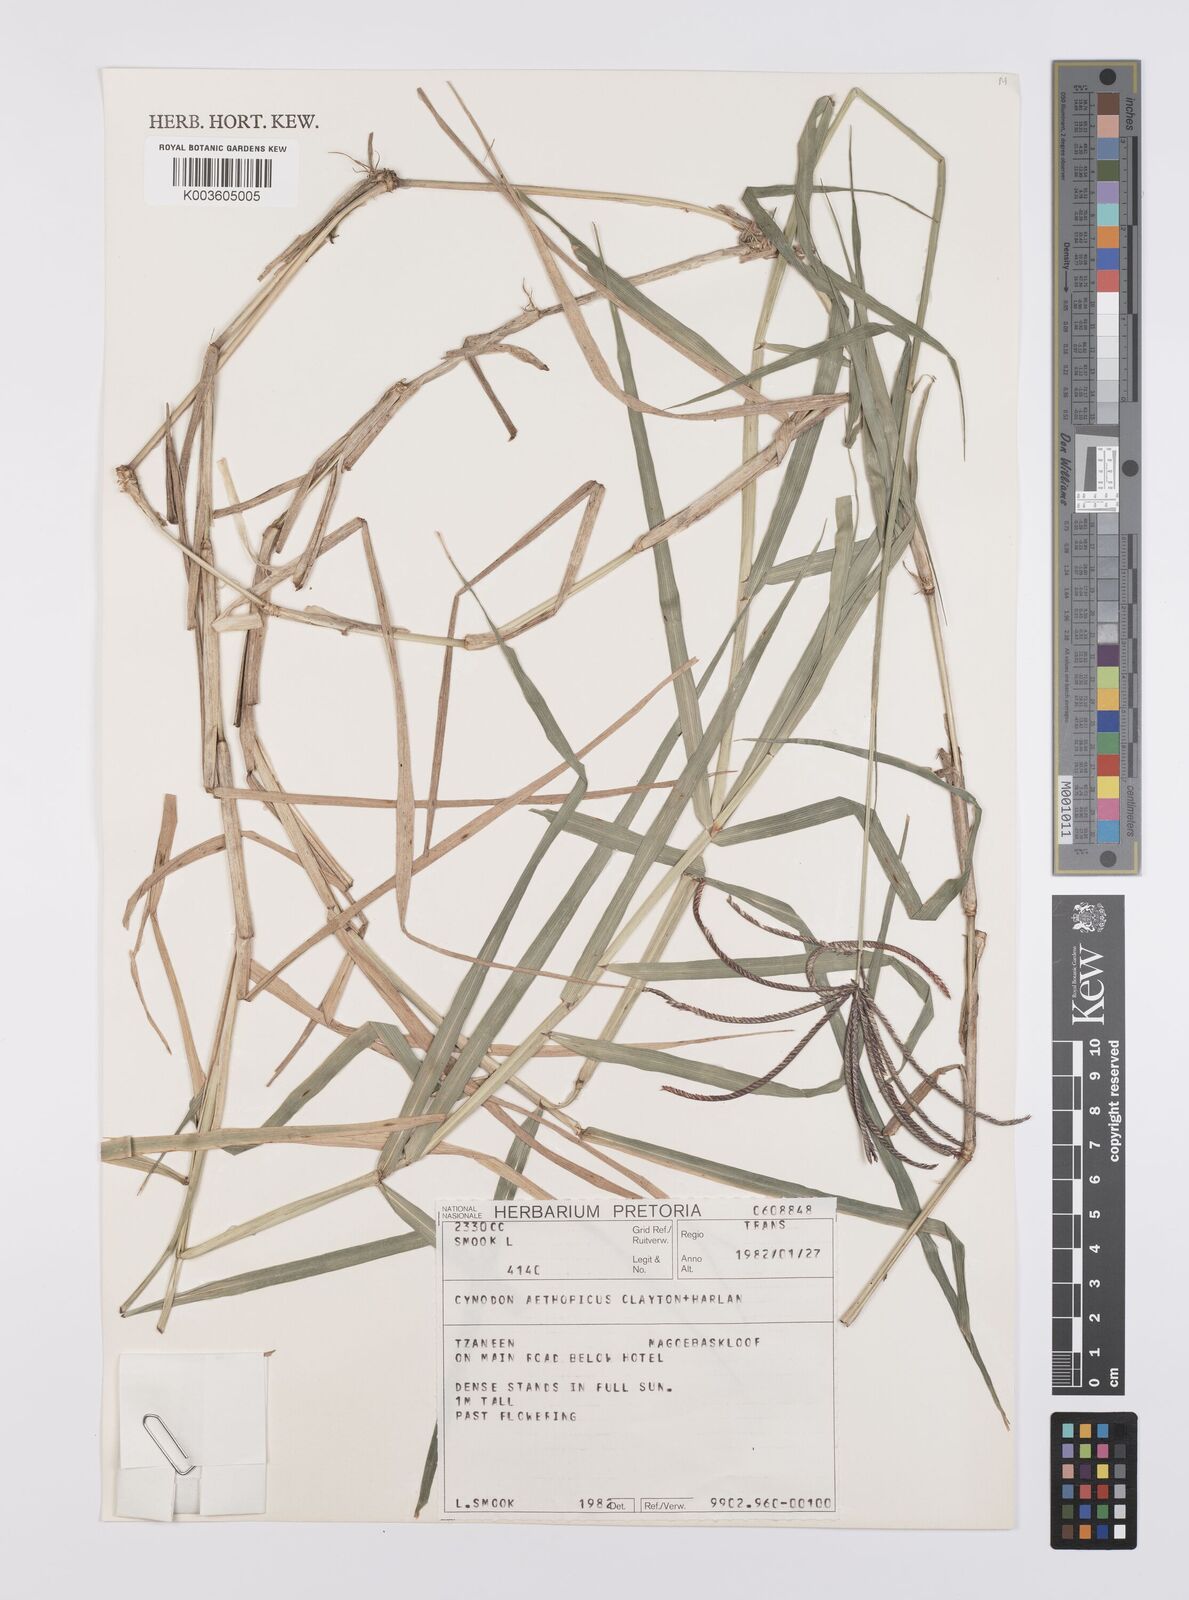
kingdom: Plantae
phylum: Tracheophyta
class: Liliopsida
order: Poales
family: Poaceae
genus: Cynodon
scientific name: Cynodon aethiopicus
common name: Ethiopian dogstooth grass
